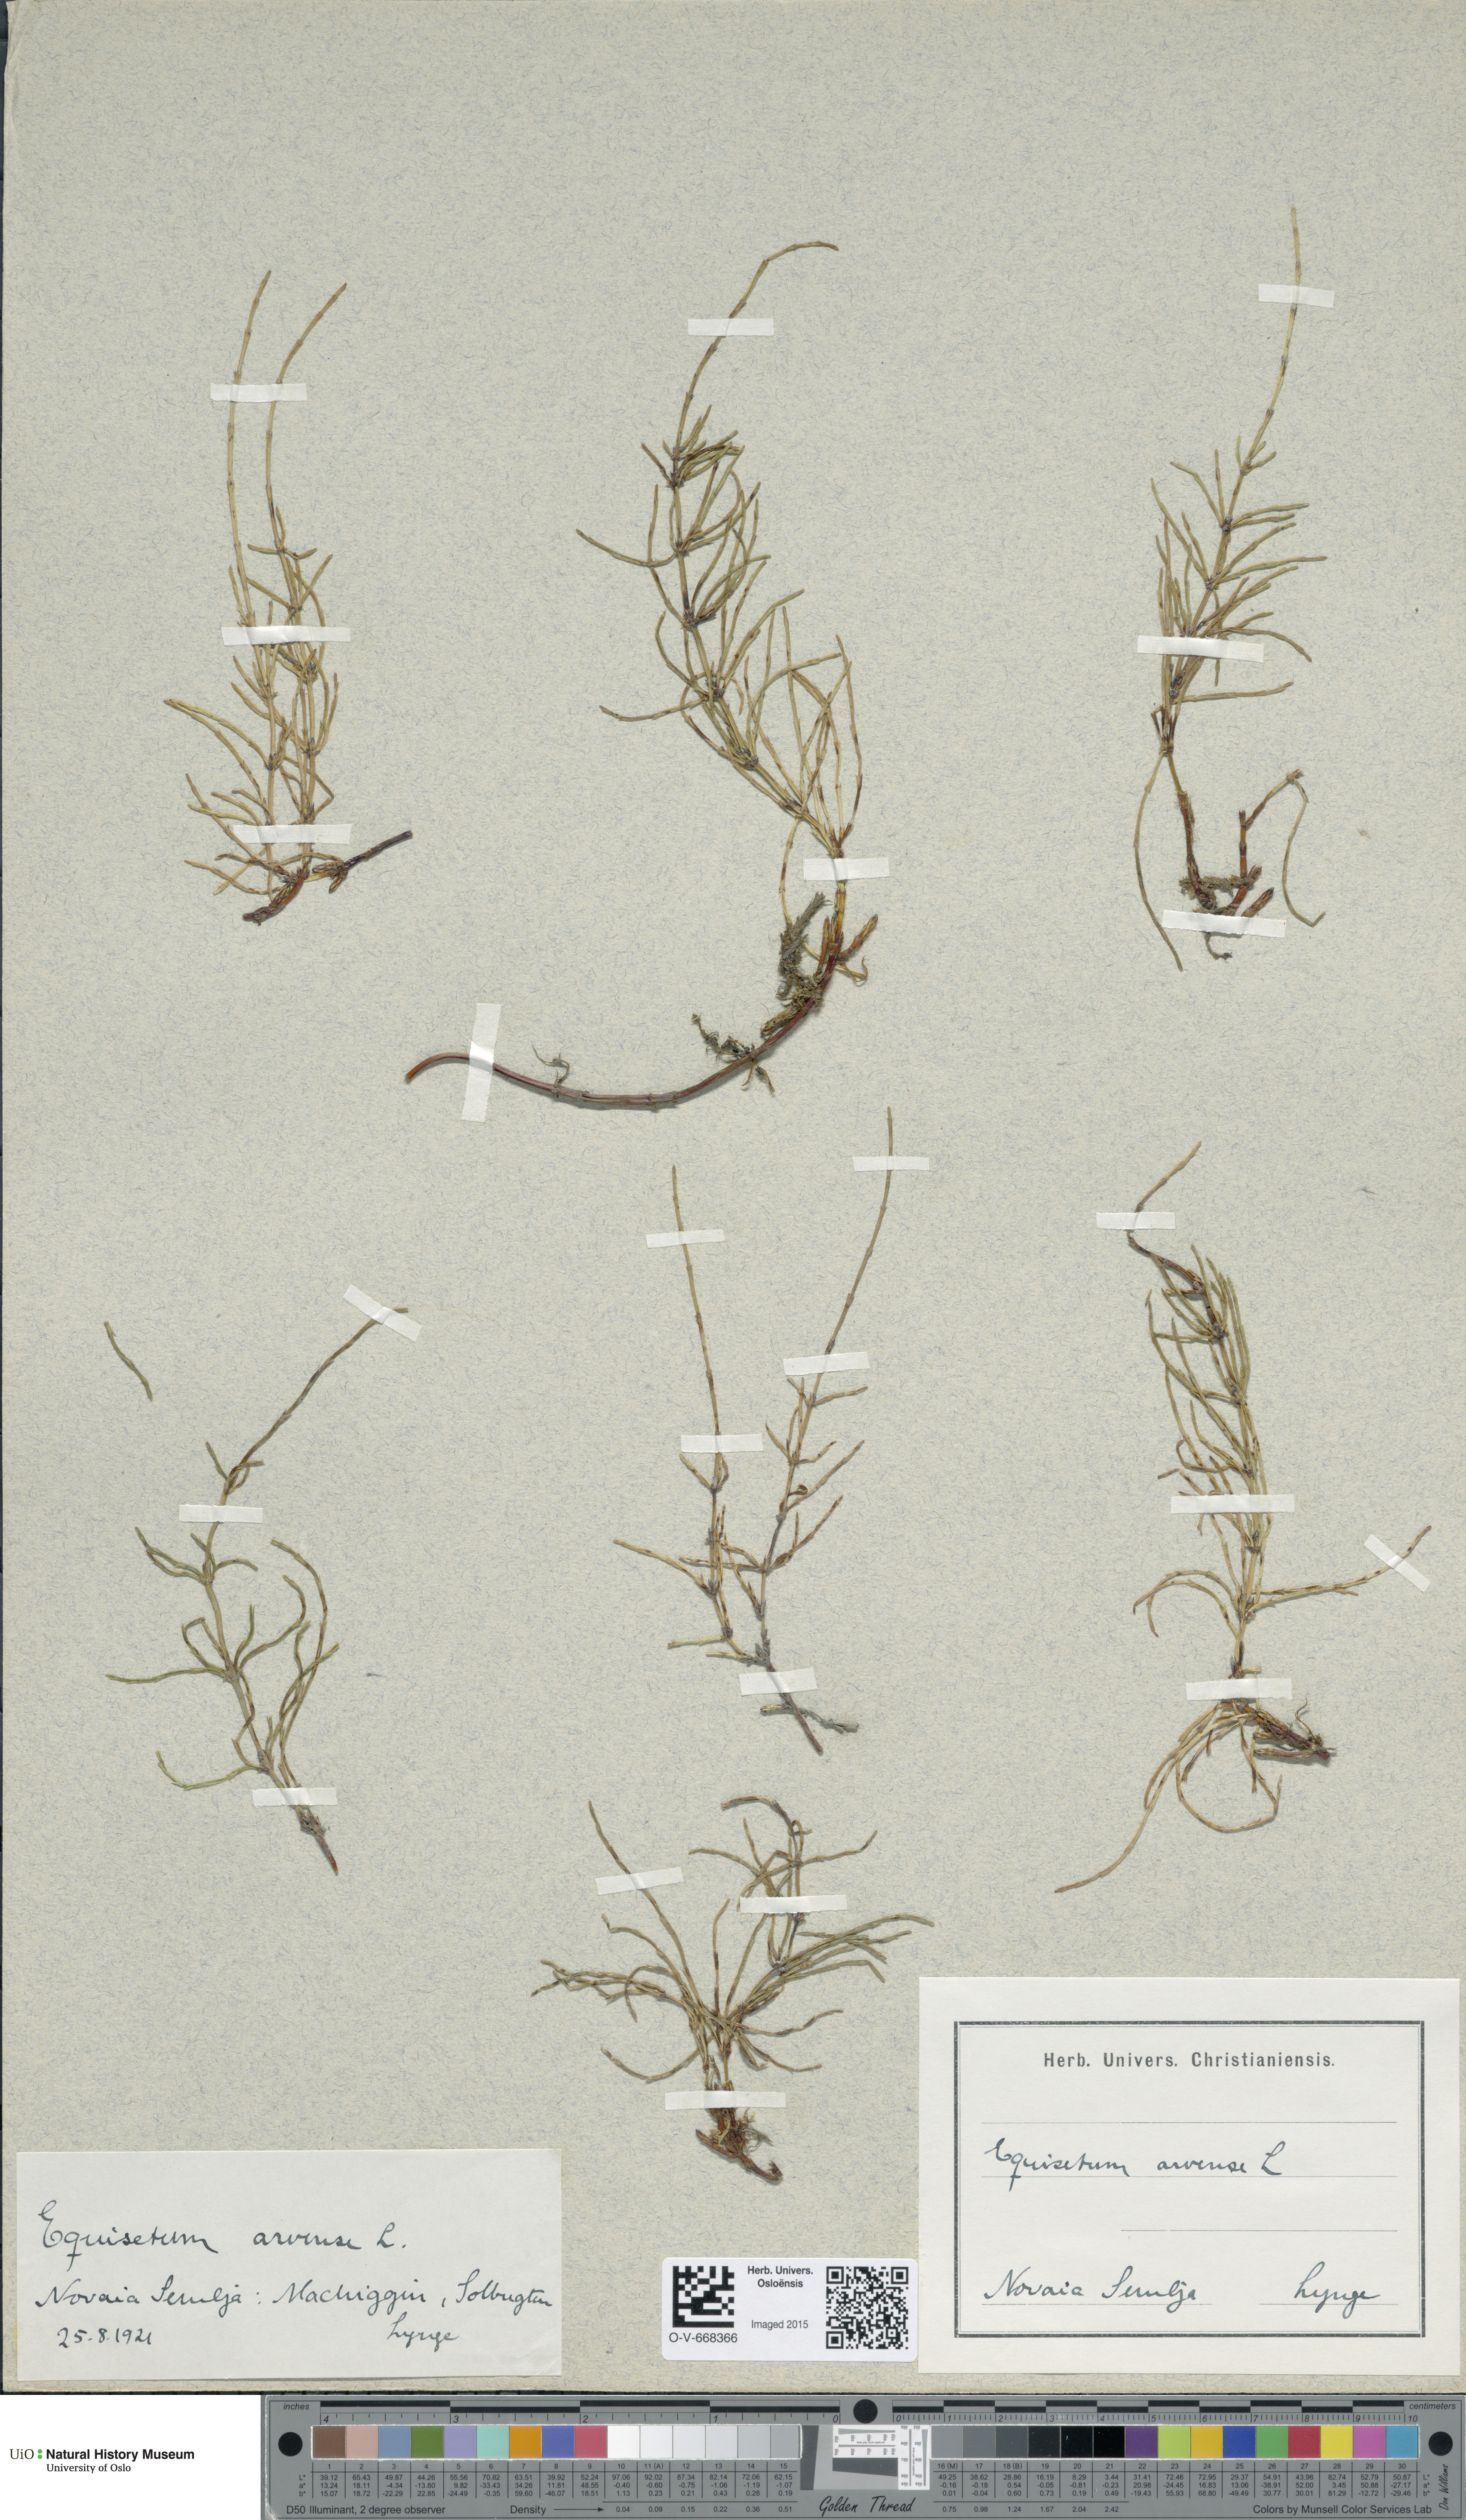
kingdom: Plantae
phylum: Tracheophyta
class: Polypodiopsida
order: Equisetales
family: Equisetaceae
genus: Equisetum
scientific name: Equisetum arvense
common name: Field horsetail
